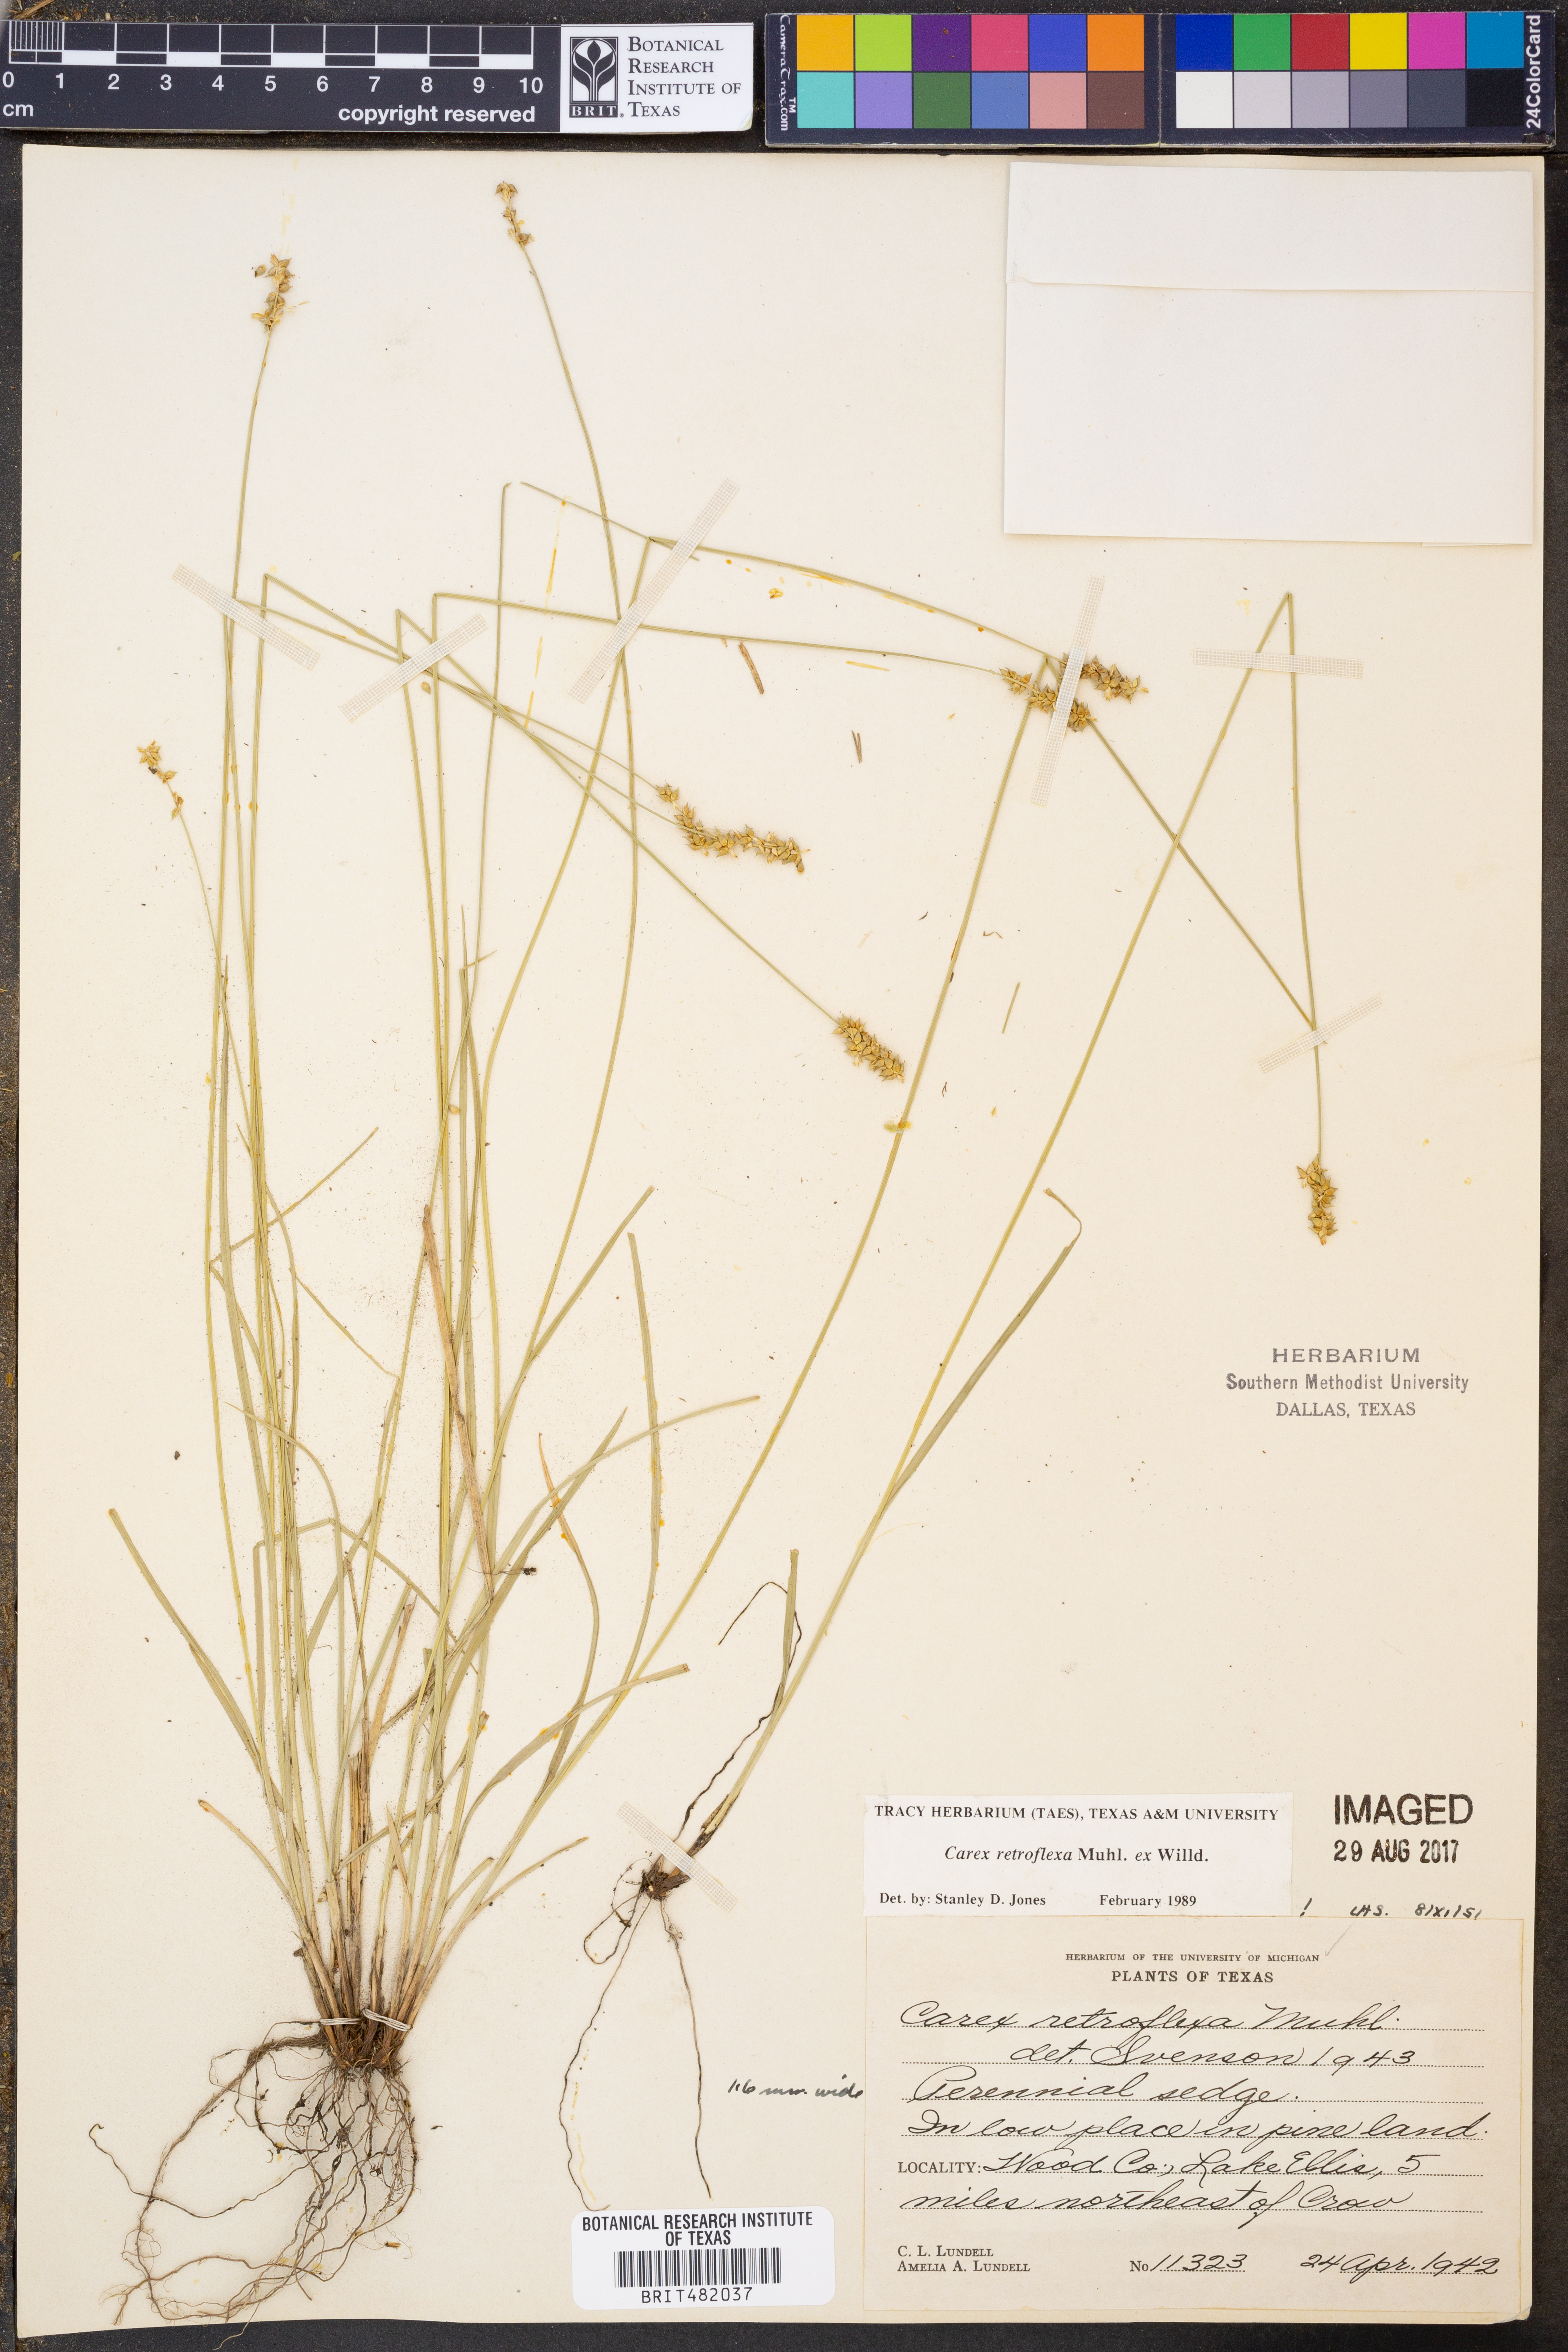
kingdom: Plantae
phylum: Tracheophyta
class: Liliopsida
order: Poales
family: Cyperaceae
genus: Carex
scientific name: Carex retroflexa
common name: Reflexed sedge
